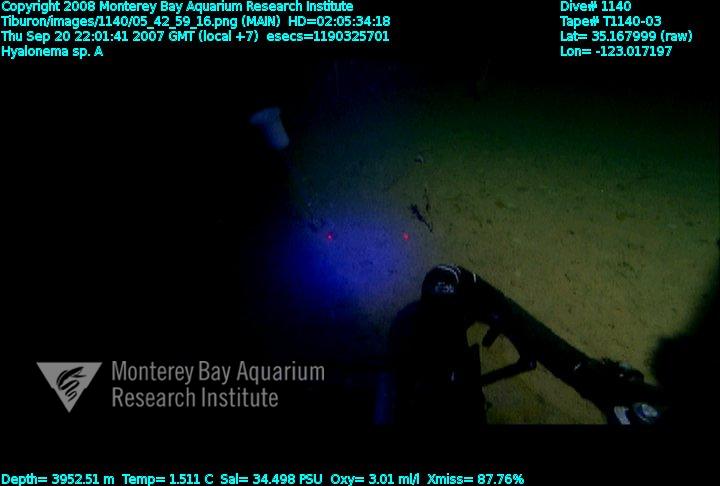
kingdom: Animalia
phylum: Porifera
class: Hexactinellida
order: Amphidiscosida
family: Hyalonematidae
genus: Hyalonema
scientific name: Hyalonema
